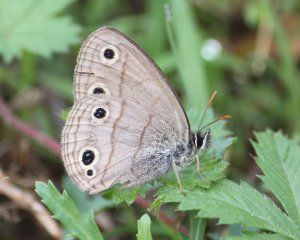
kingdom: Animalia
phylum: Arthropoda
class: Insecta
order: Lepidoptera
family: Nymphalidae
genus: Euptychia
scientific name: Euptychia cymela
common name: Little Wood Satyr
